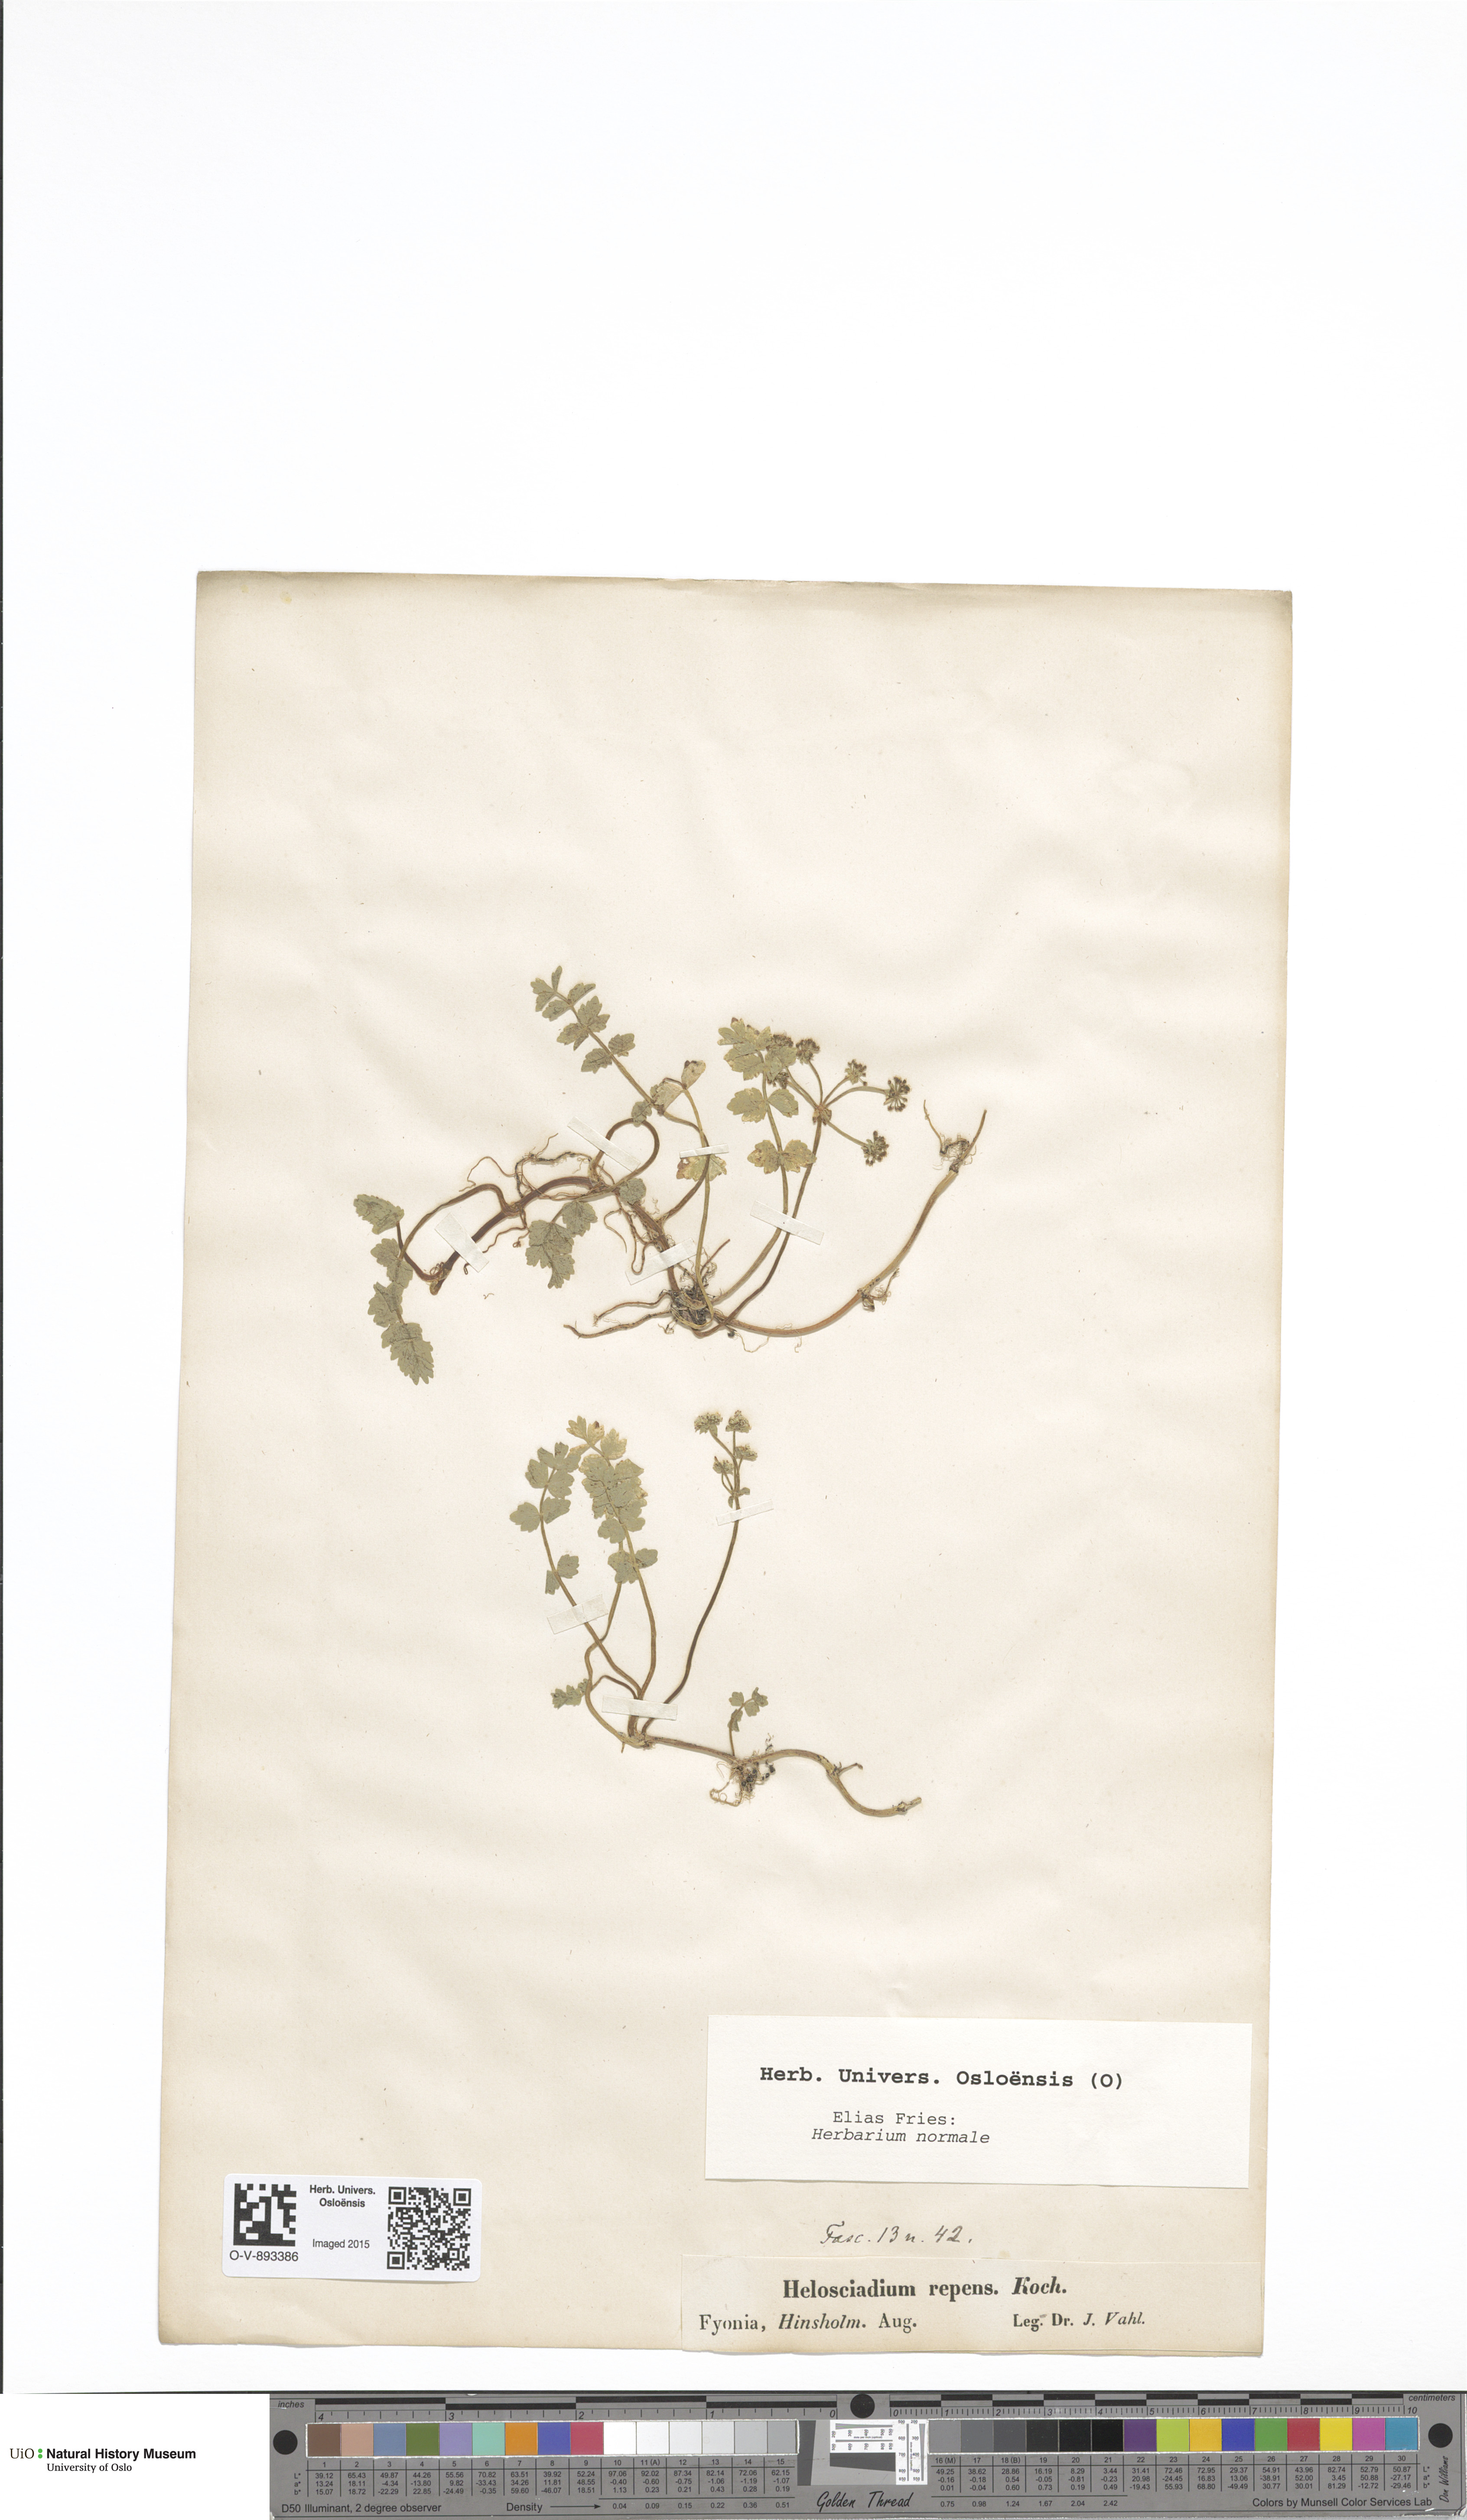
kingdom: Plantae
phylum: Tracheophyta
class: Magnoliopsida
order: Apiales
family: Apiaceae
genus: Helosciadium
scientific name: Helosciadium repens
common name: Creeping marshwort
